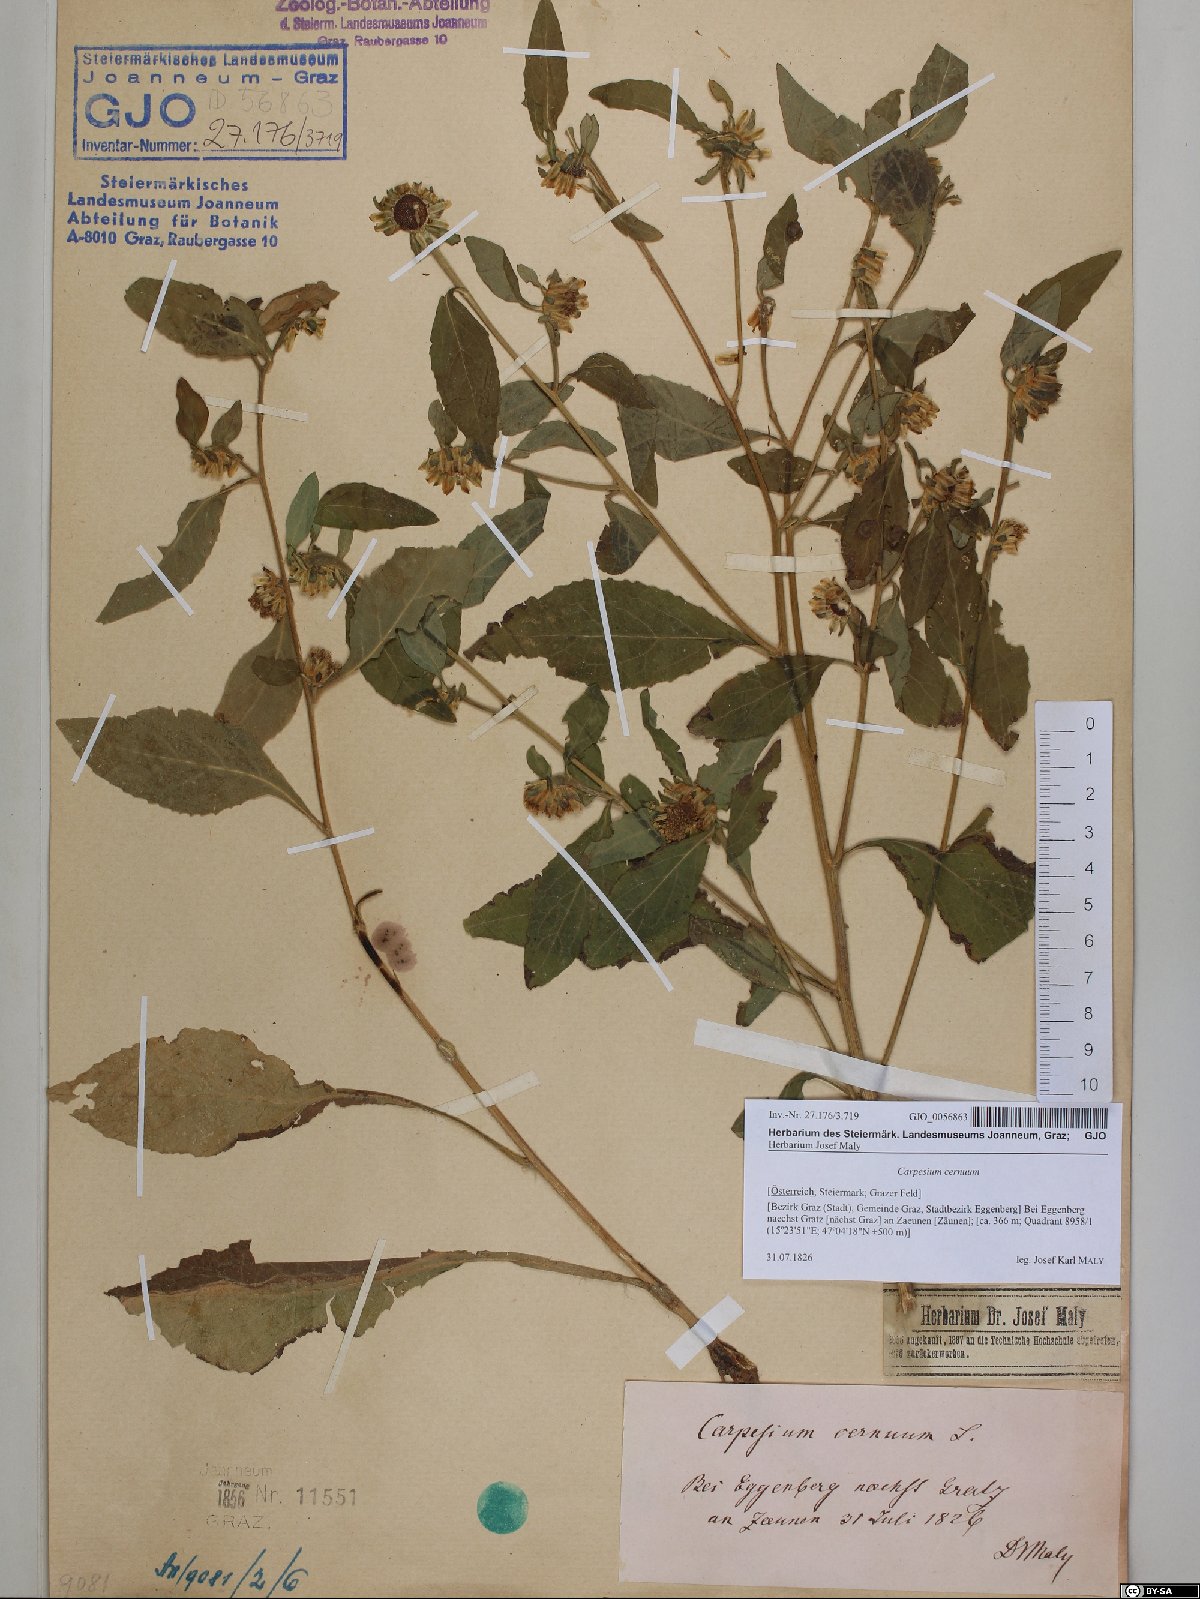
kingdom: Plantae
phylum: Tracheophyta
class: Magnoliopsida
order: Asterales
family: Asteraceae
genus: Carpesium
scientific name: Carpesium cernuum
